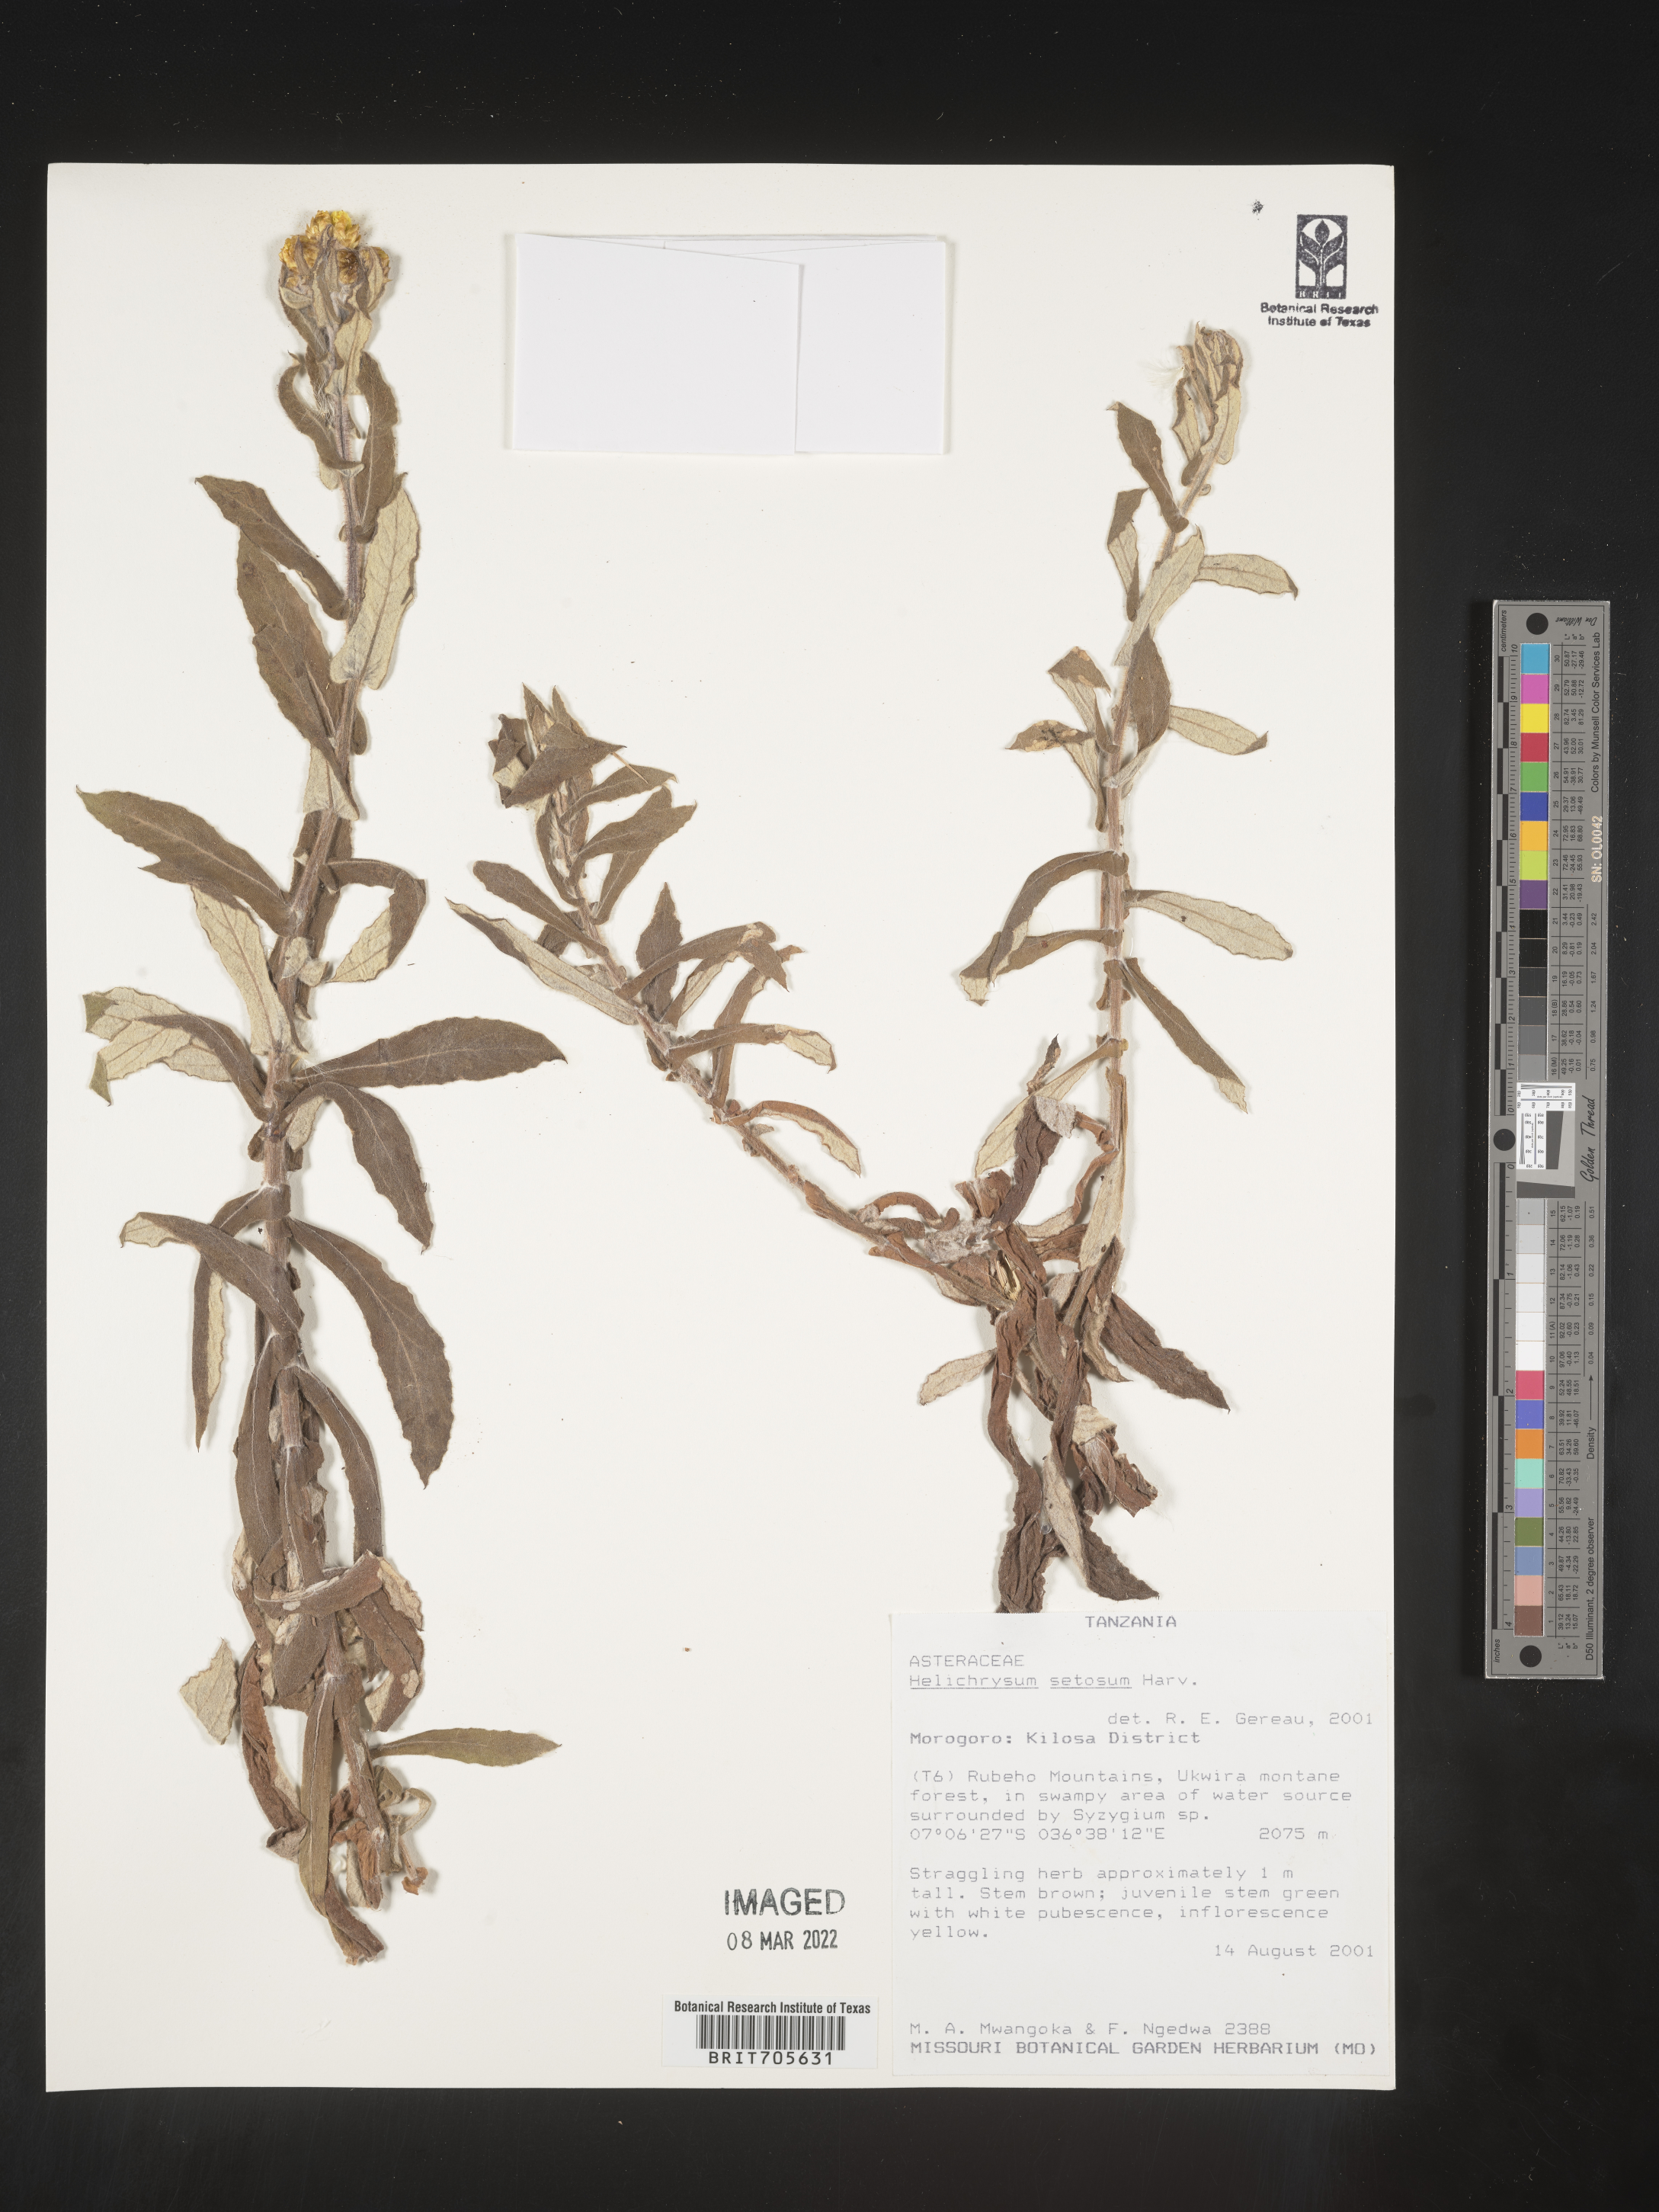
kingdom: Plantae
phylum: Tracheophyta
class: Magnoliopsida
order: Asterales
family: Asteraceae
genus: Helichrysum
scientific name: Helichrysum setosum
